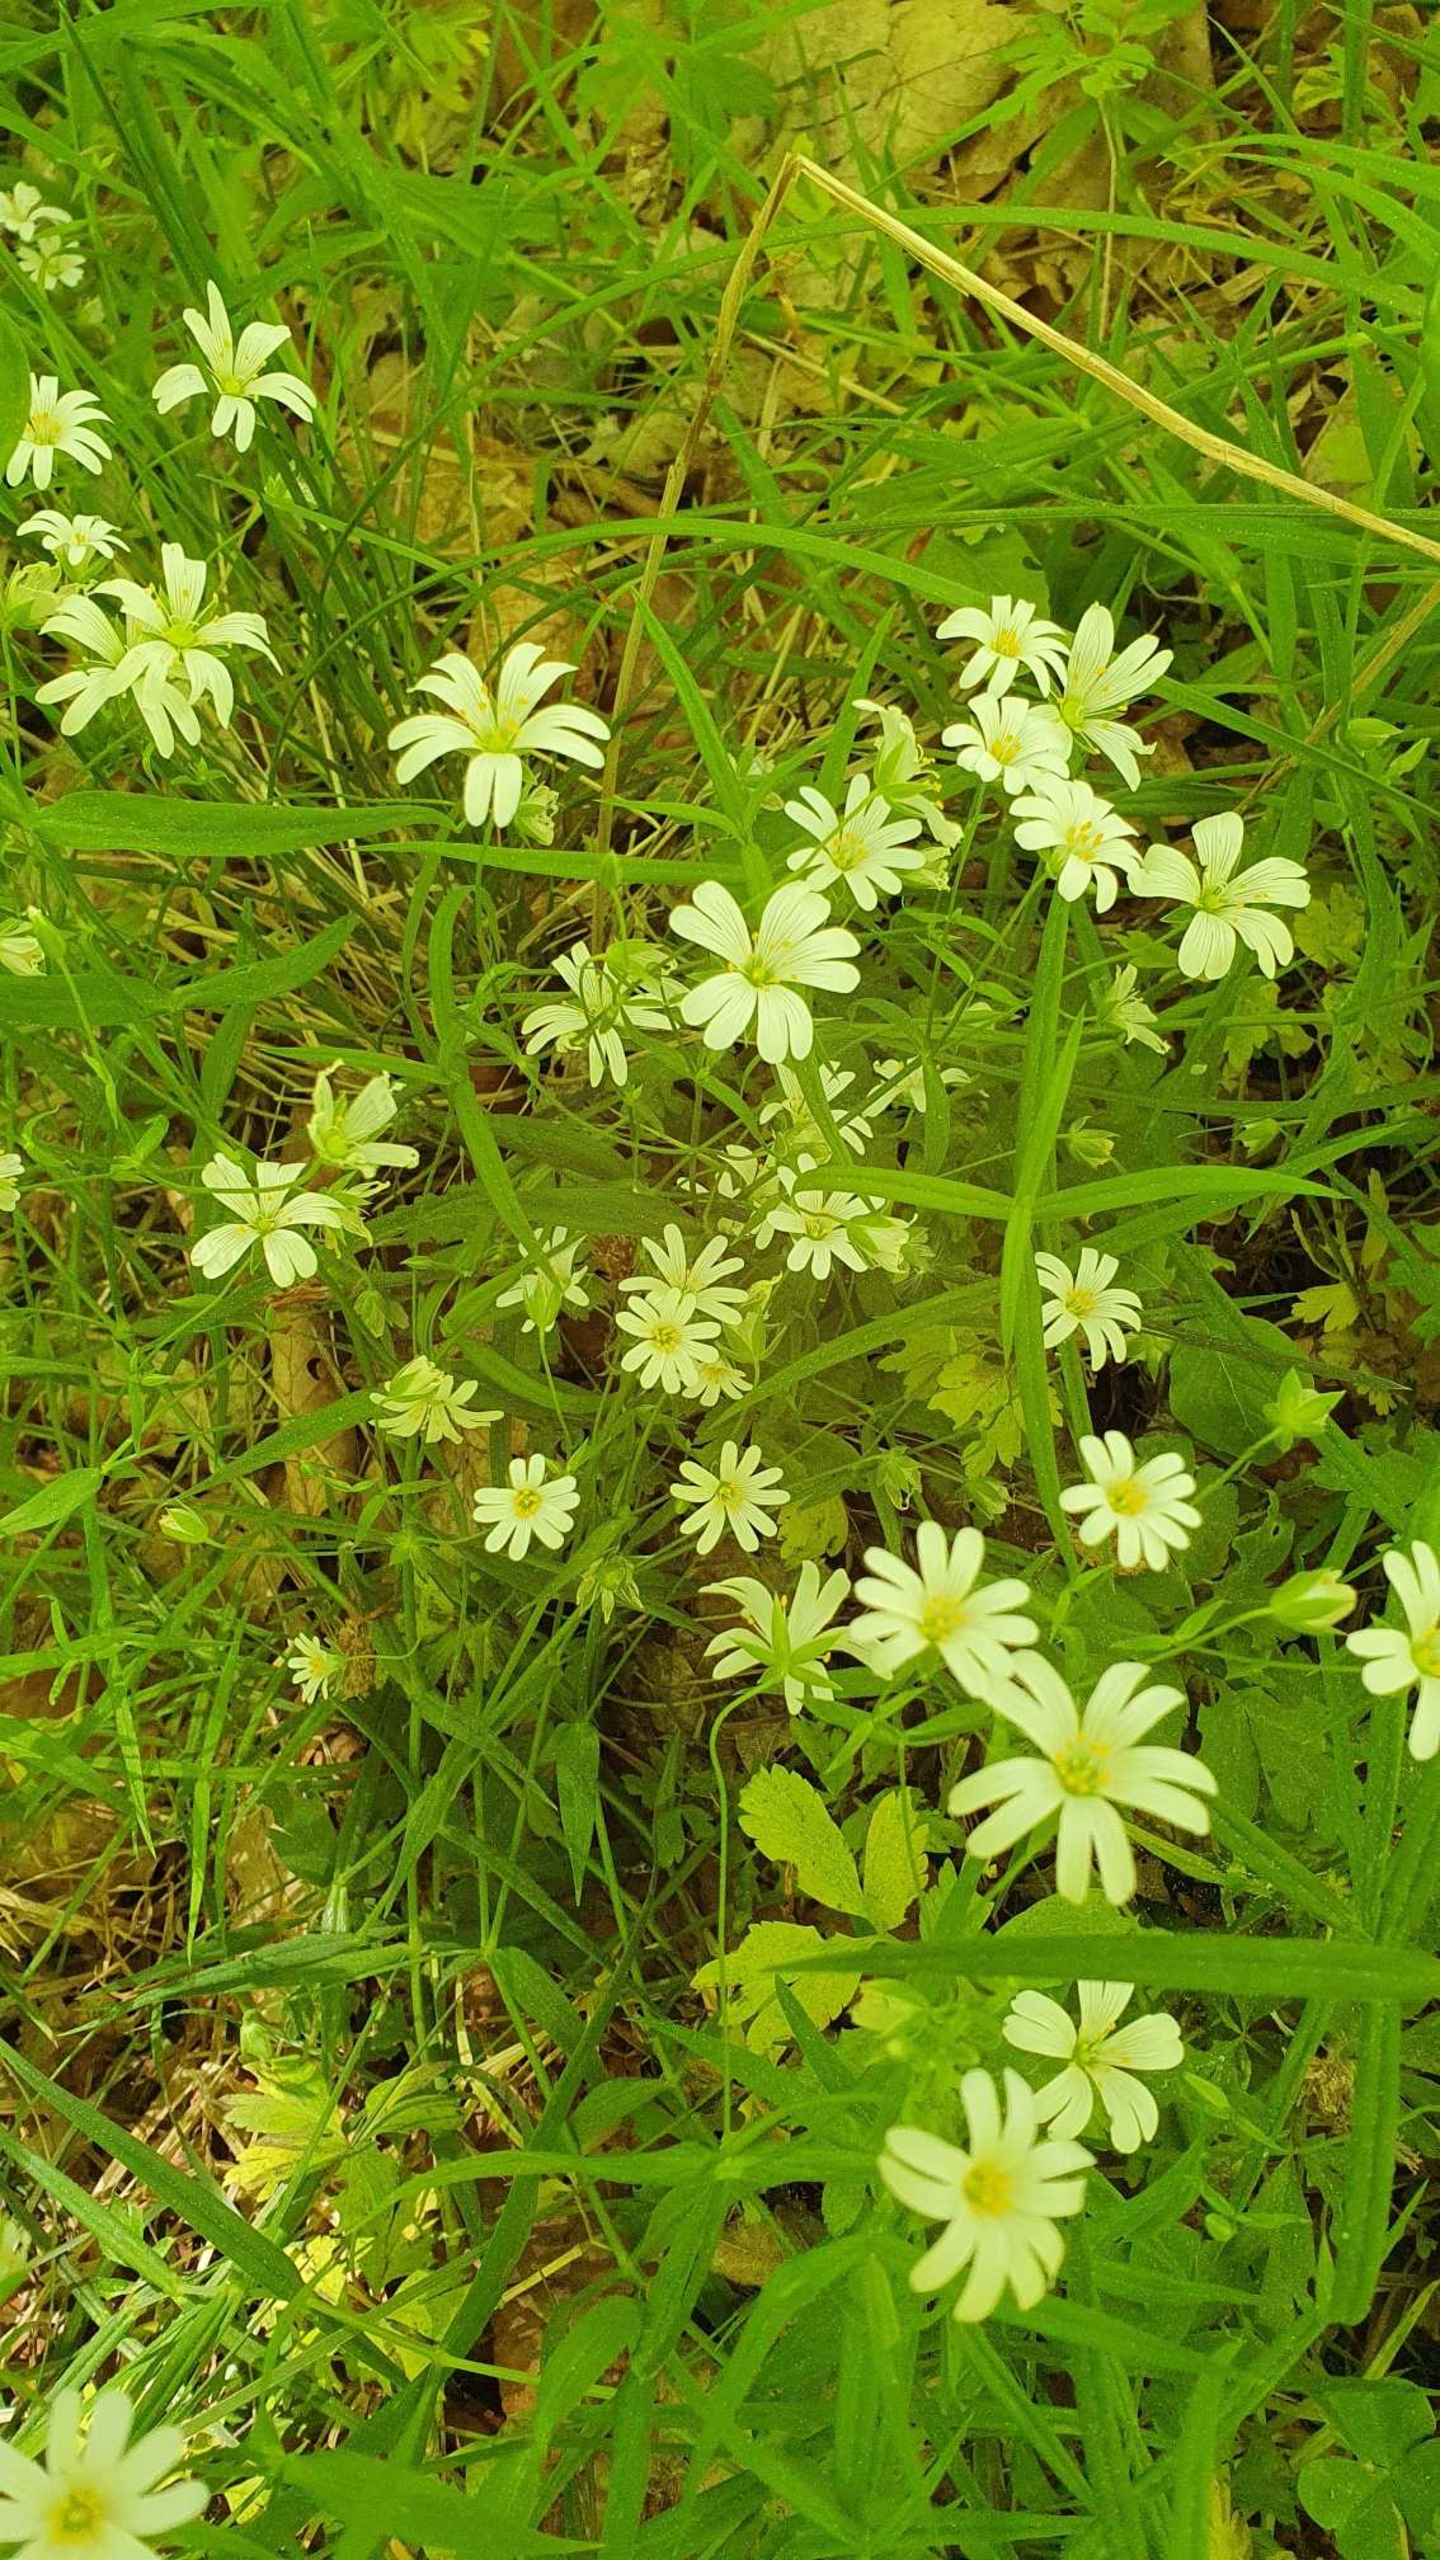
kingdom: Plantae
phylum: Tracheophyta
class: Magnoliopsida
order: Caryophyllales
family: Caryophyllaceae
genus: Rabelera
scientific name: Rabelera holostea
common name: Stor fladstjerne
